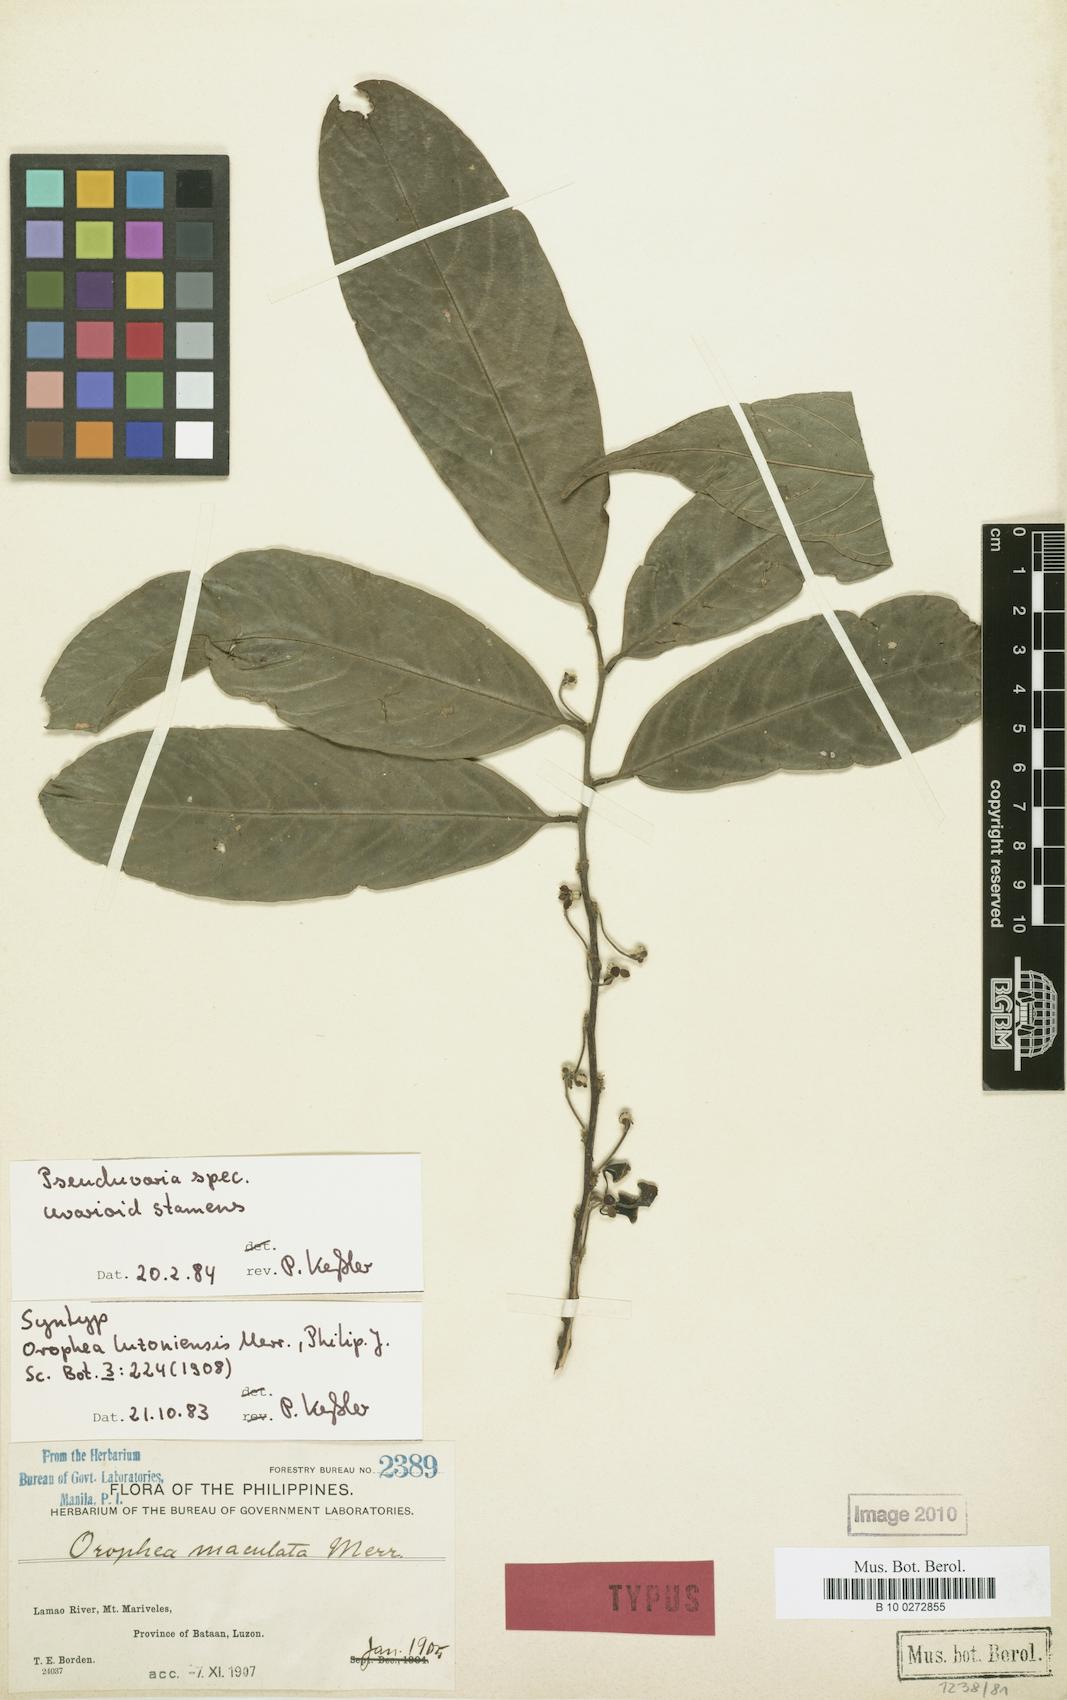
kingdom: Plantae
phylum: Tracheophyta
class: Magnoliopsida
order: Magnoliales
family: Annonaceae
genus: Pseuduvaria
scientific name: Pseuduvaria luzonensis
